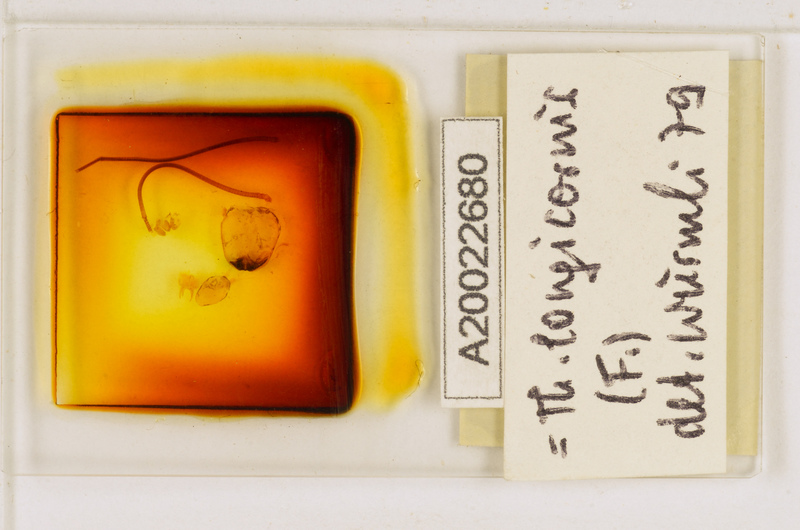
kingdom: Animalia
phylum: Arthropoda
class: Chilopoda
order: Scutigeromorpha
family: Scutigeridae
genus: Thereuopoda
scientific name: Thereuopoda longicornis
